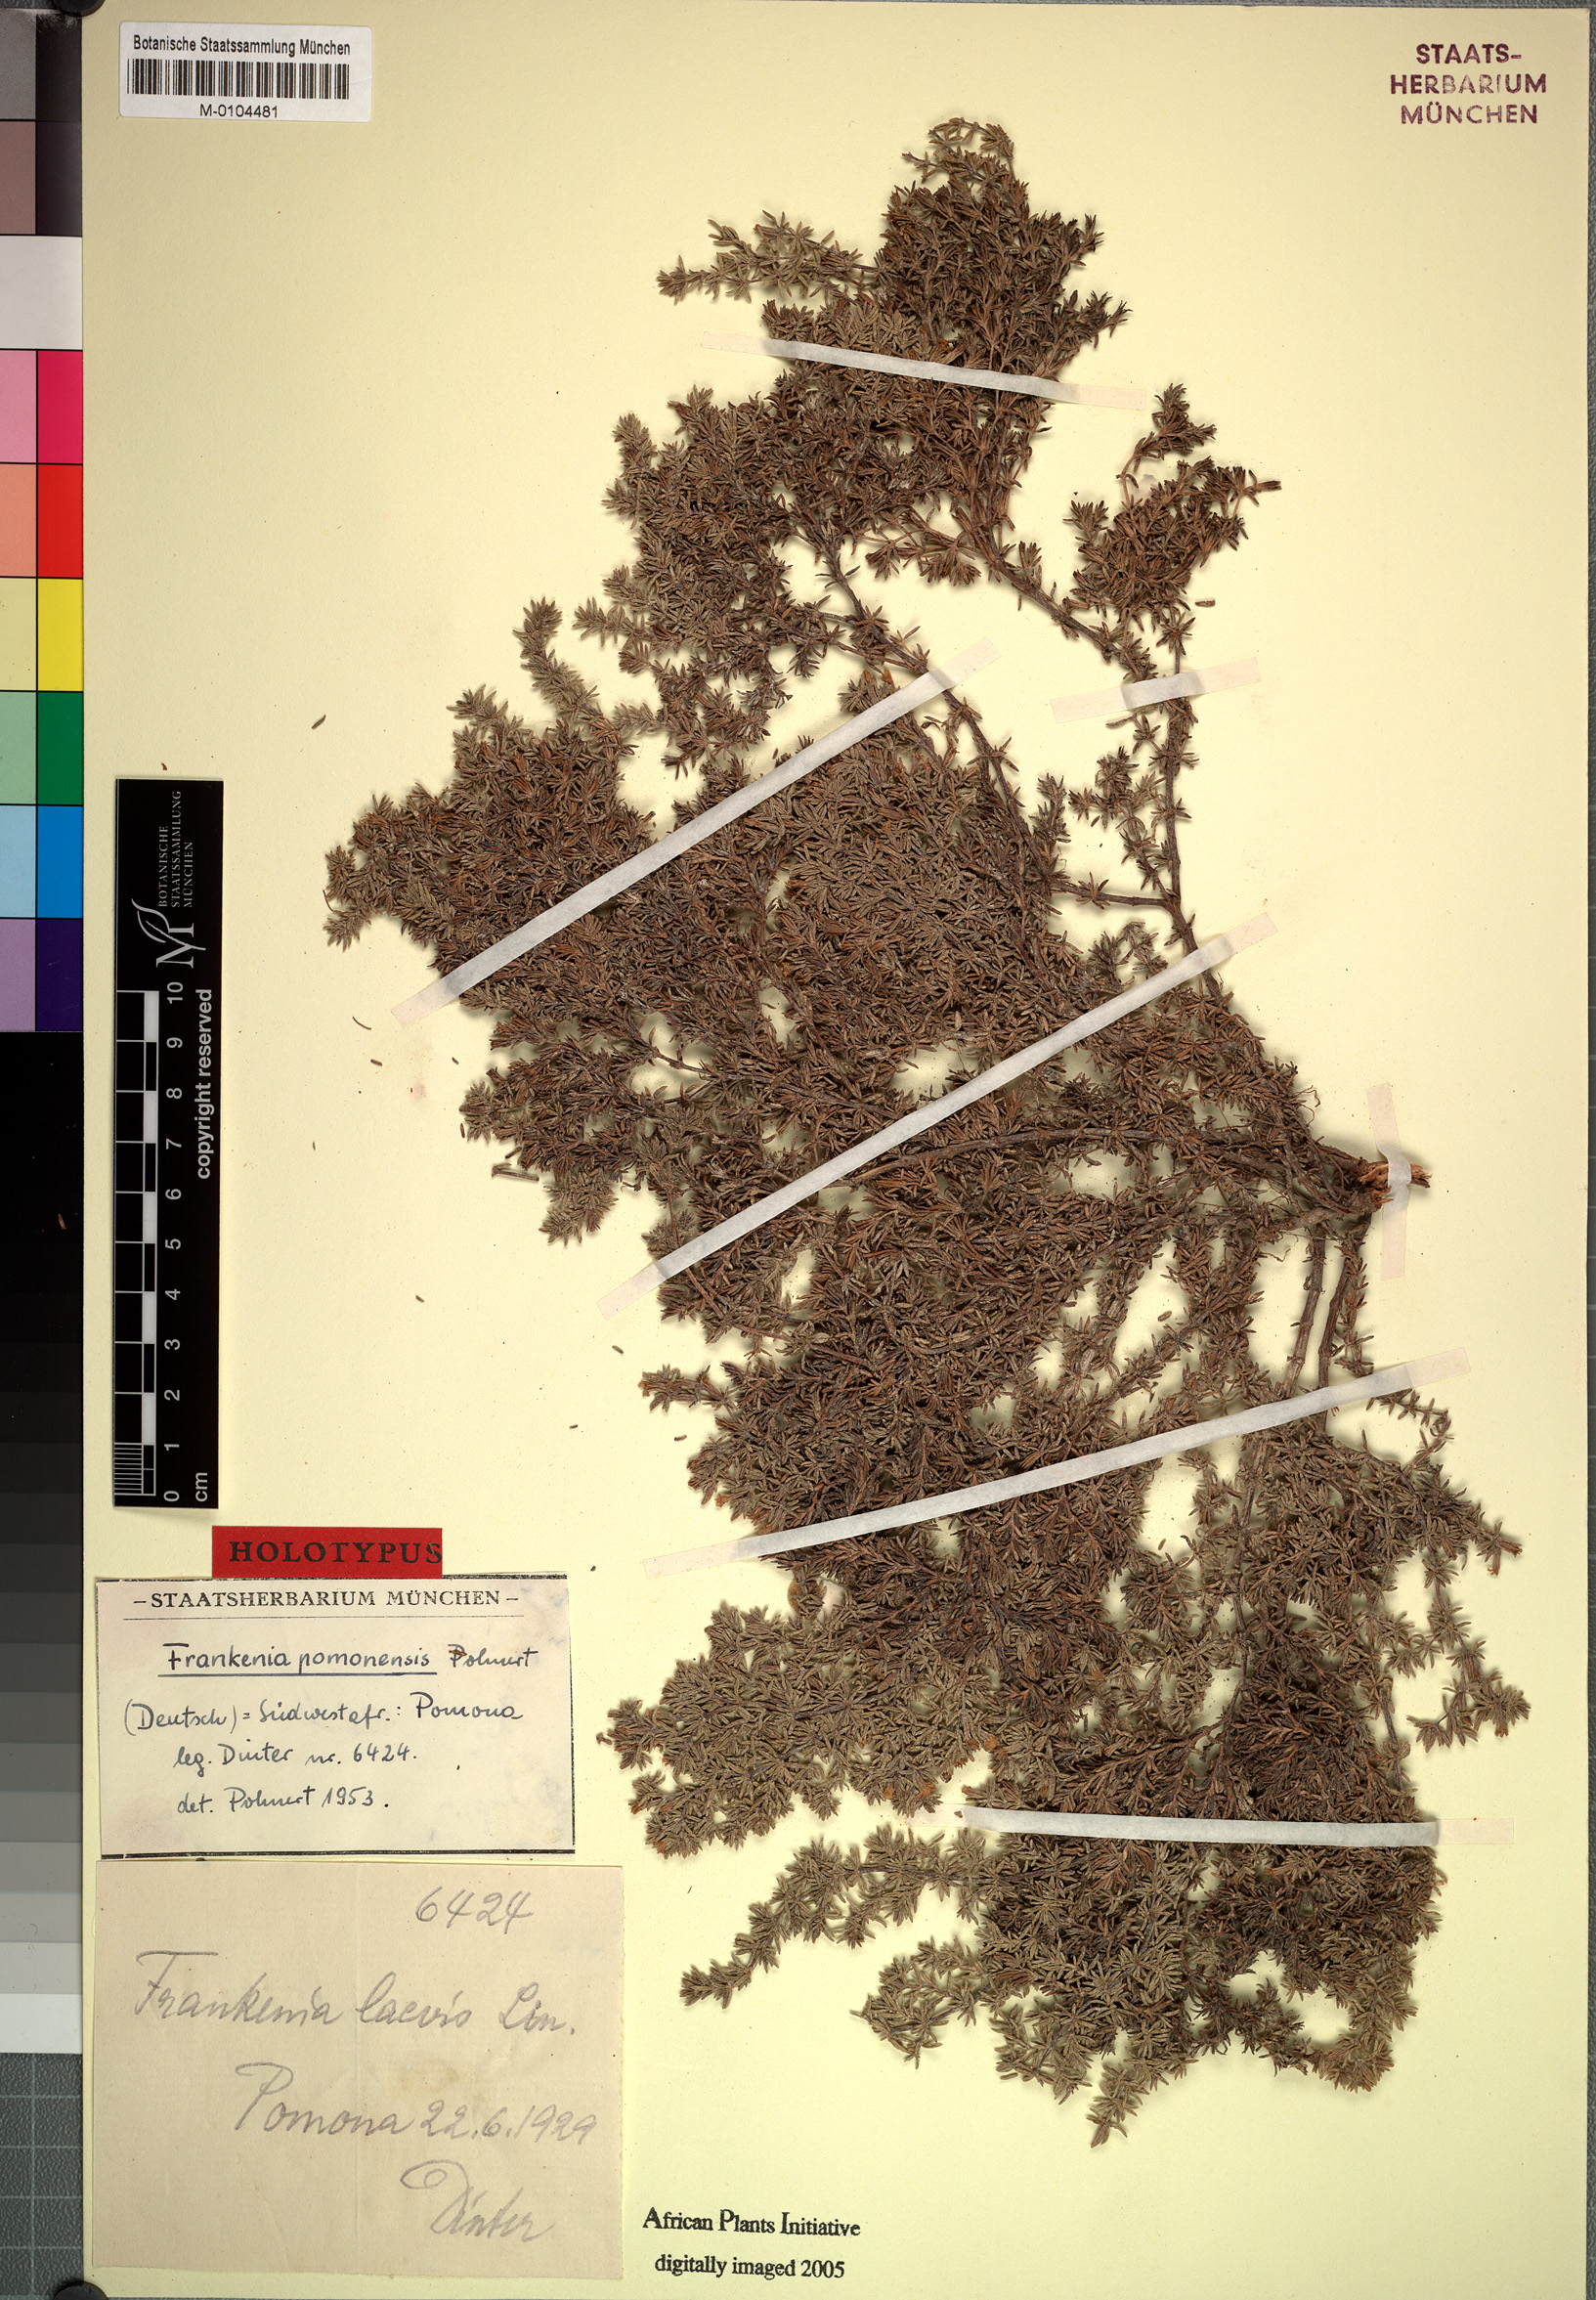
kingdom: Plantae
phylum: Tracheophyta
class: Magnoliopsida
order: Caryophyllales
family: Frankeniaceae
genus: Frankenia
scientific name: Frankenia pomonensis
